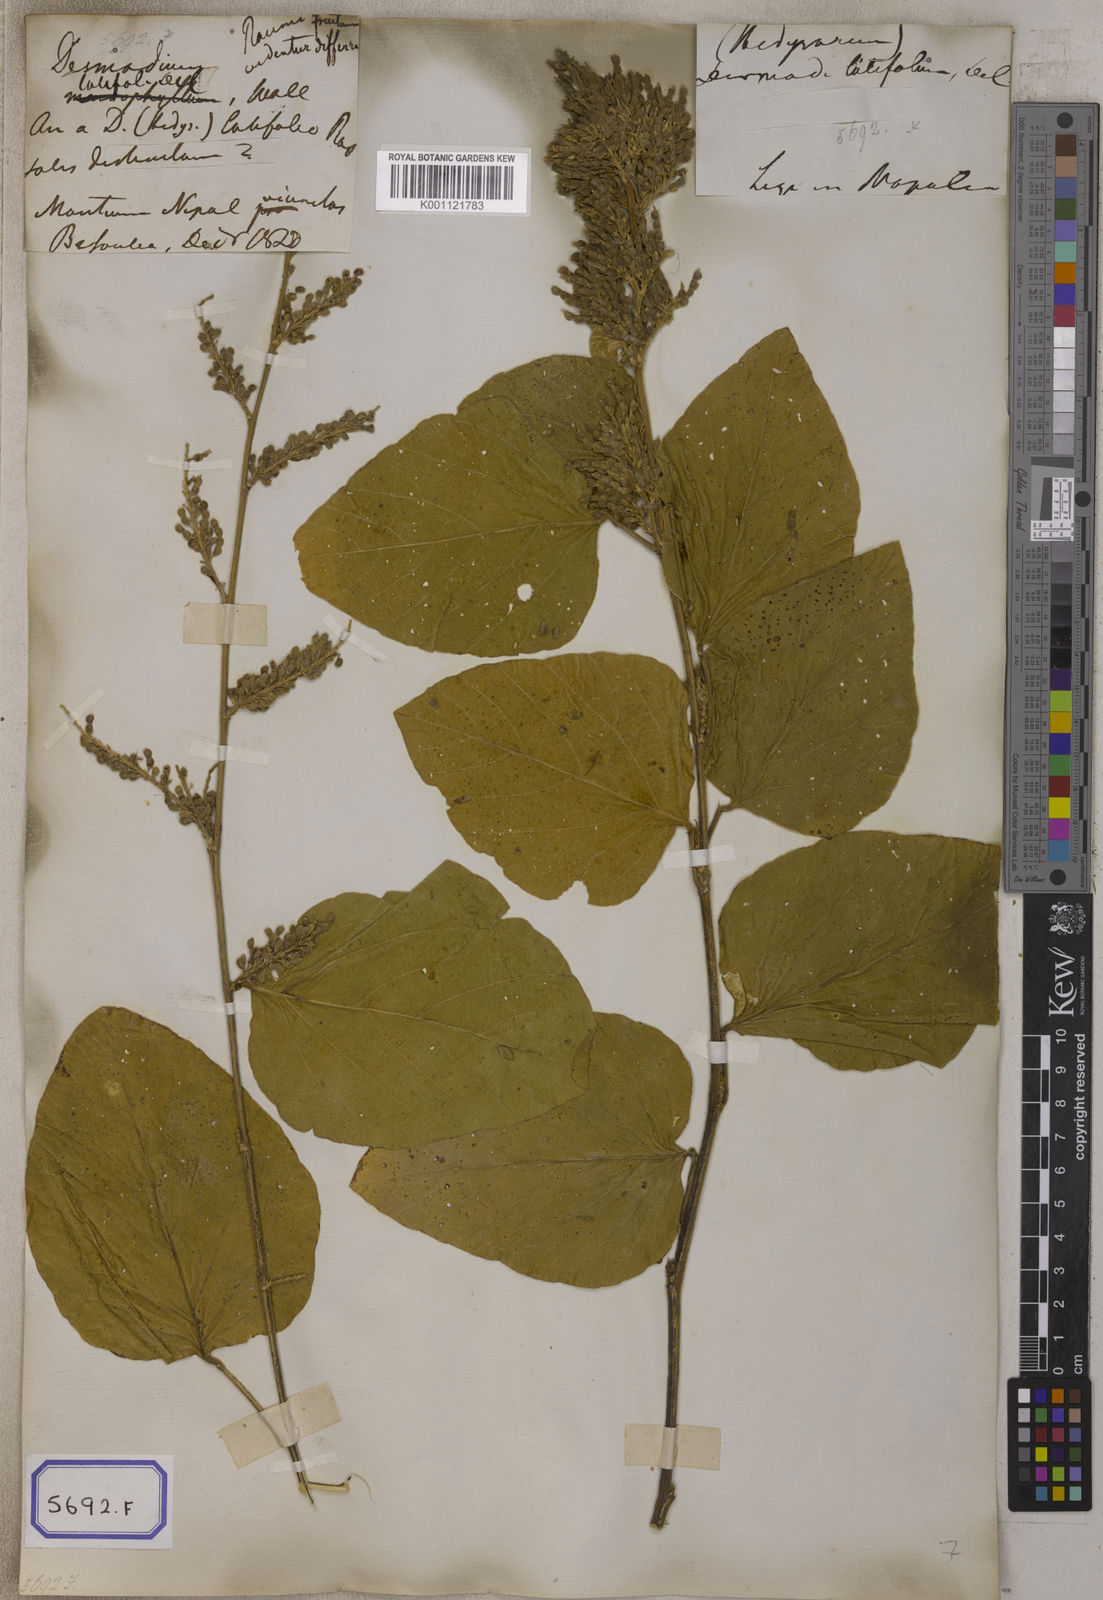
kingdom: Plantae
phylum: Tracheophyta
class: Magnoliopsida
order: Fabales
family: Fabaceae
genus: Polhillides
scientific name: Polhillides velutina
